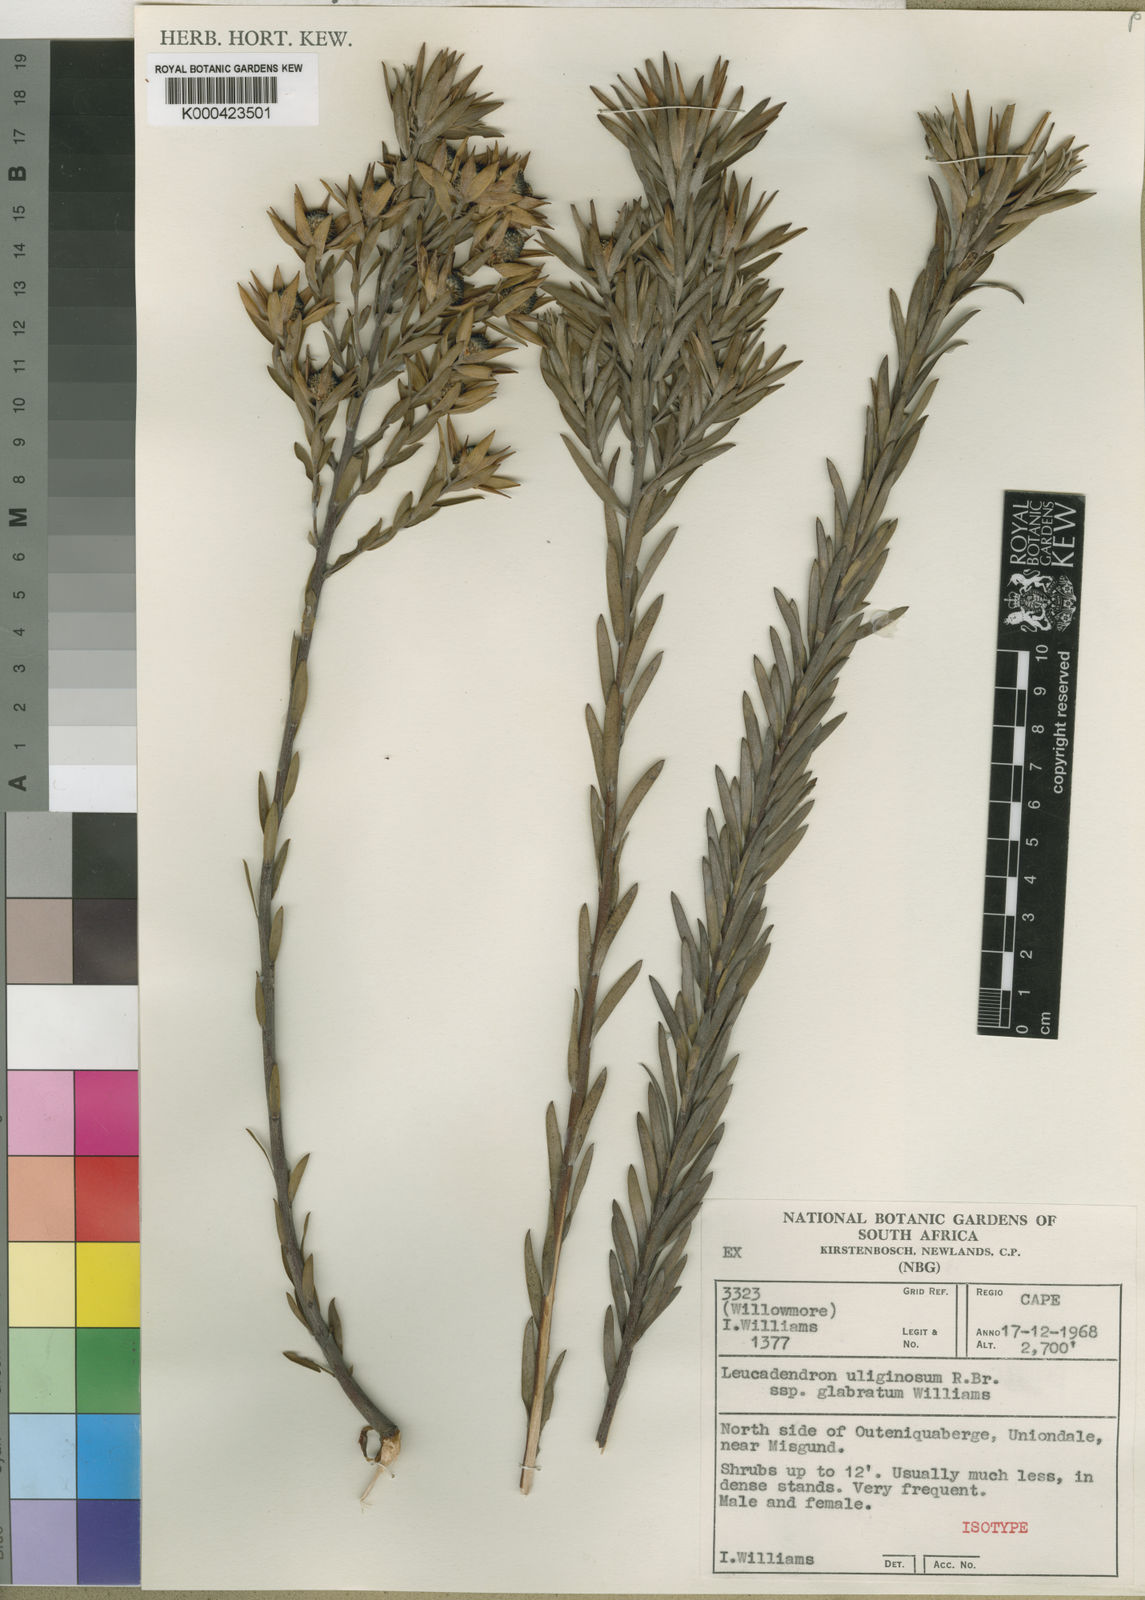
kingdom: Plantae
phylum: Tracheophyta
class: Magnoliopsida
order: Proteales
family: Proteaceae
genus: Leucadendron
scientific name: Leucadendron uliginosum
